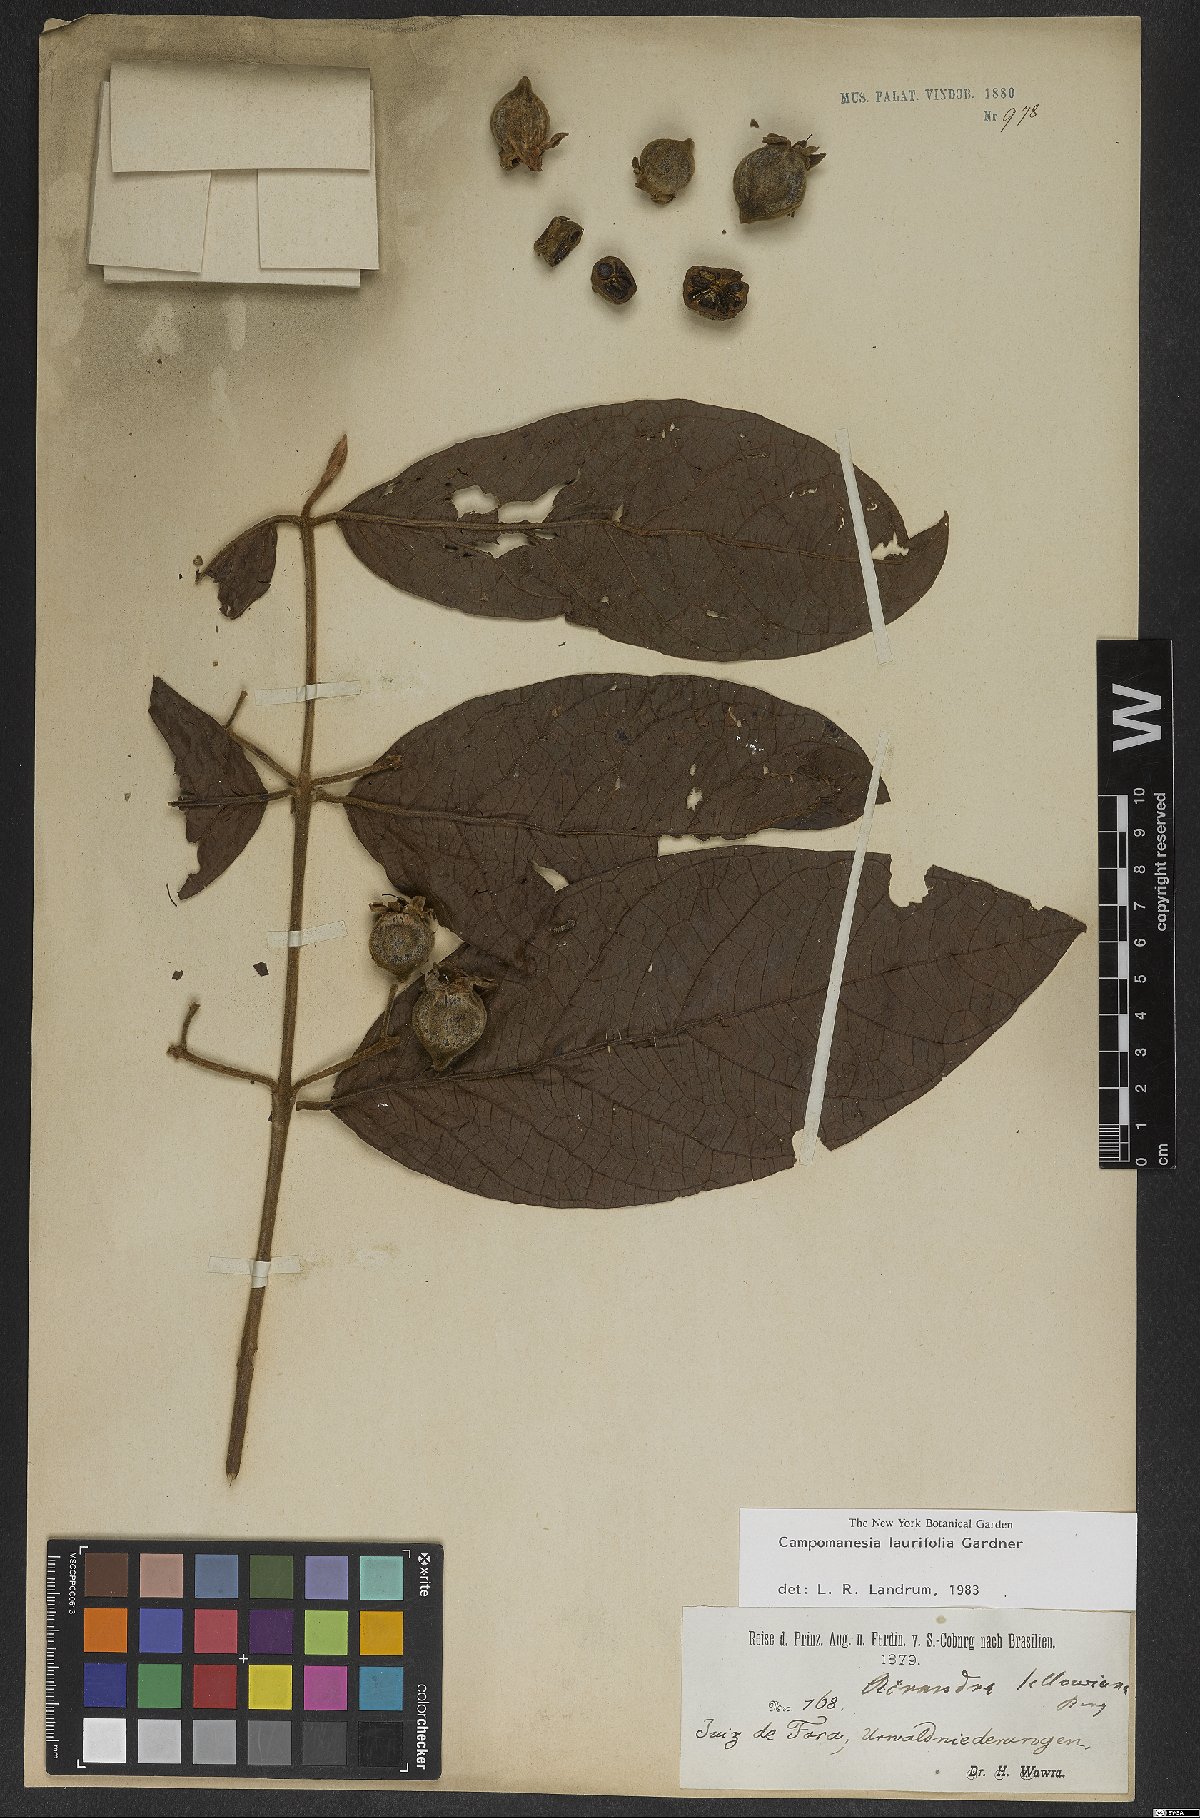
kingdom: Plantae
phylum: Tracheophyta
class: Magnoliopsida
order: Myrtales
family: Myrtaceae
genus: Campomanesia
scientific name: Campomanesia laurifolia
